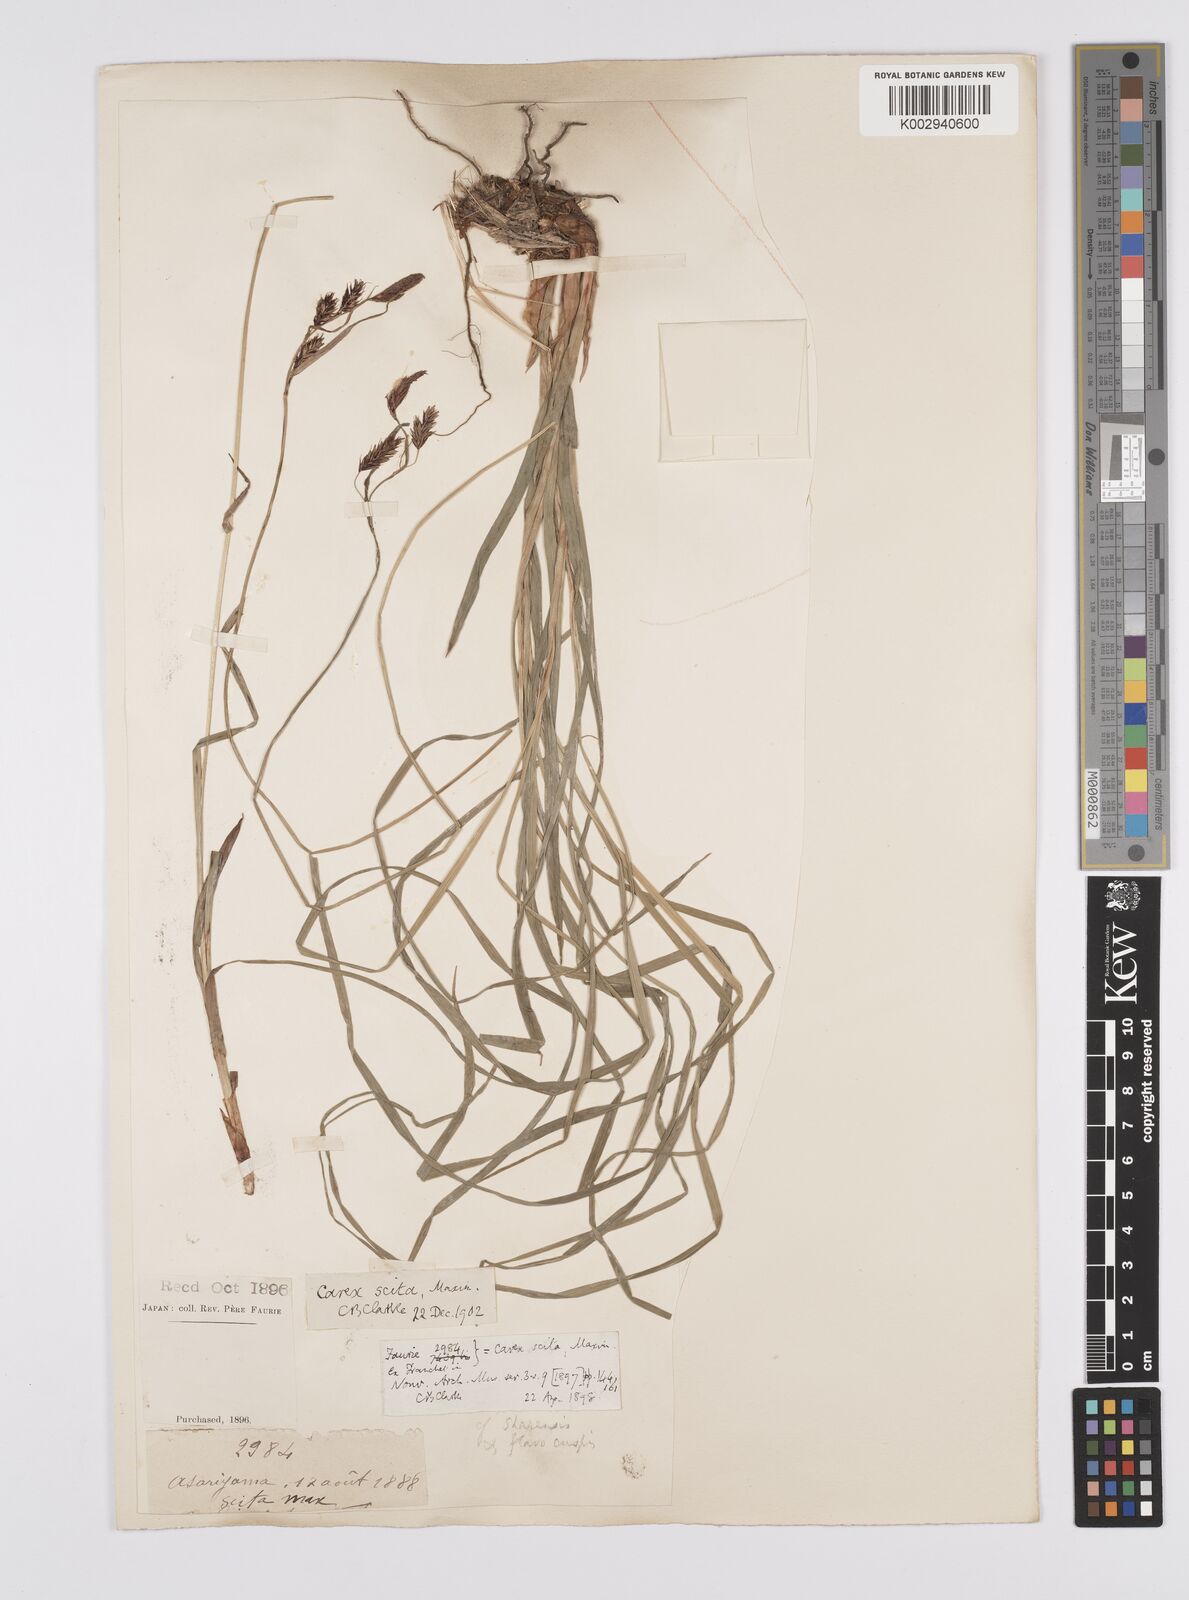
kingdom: Plantae
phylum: Tracheophyta
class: Liliopsida
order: Poales
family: Cyperaceae
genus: Carex
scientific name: Carex scita
